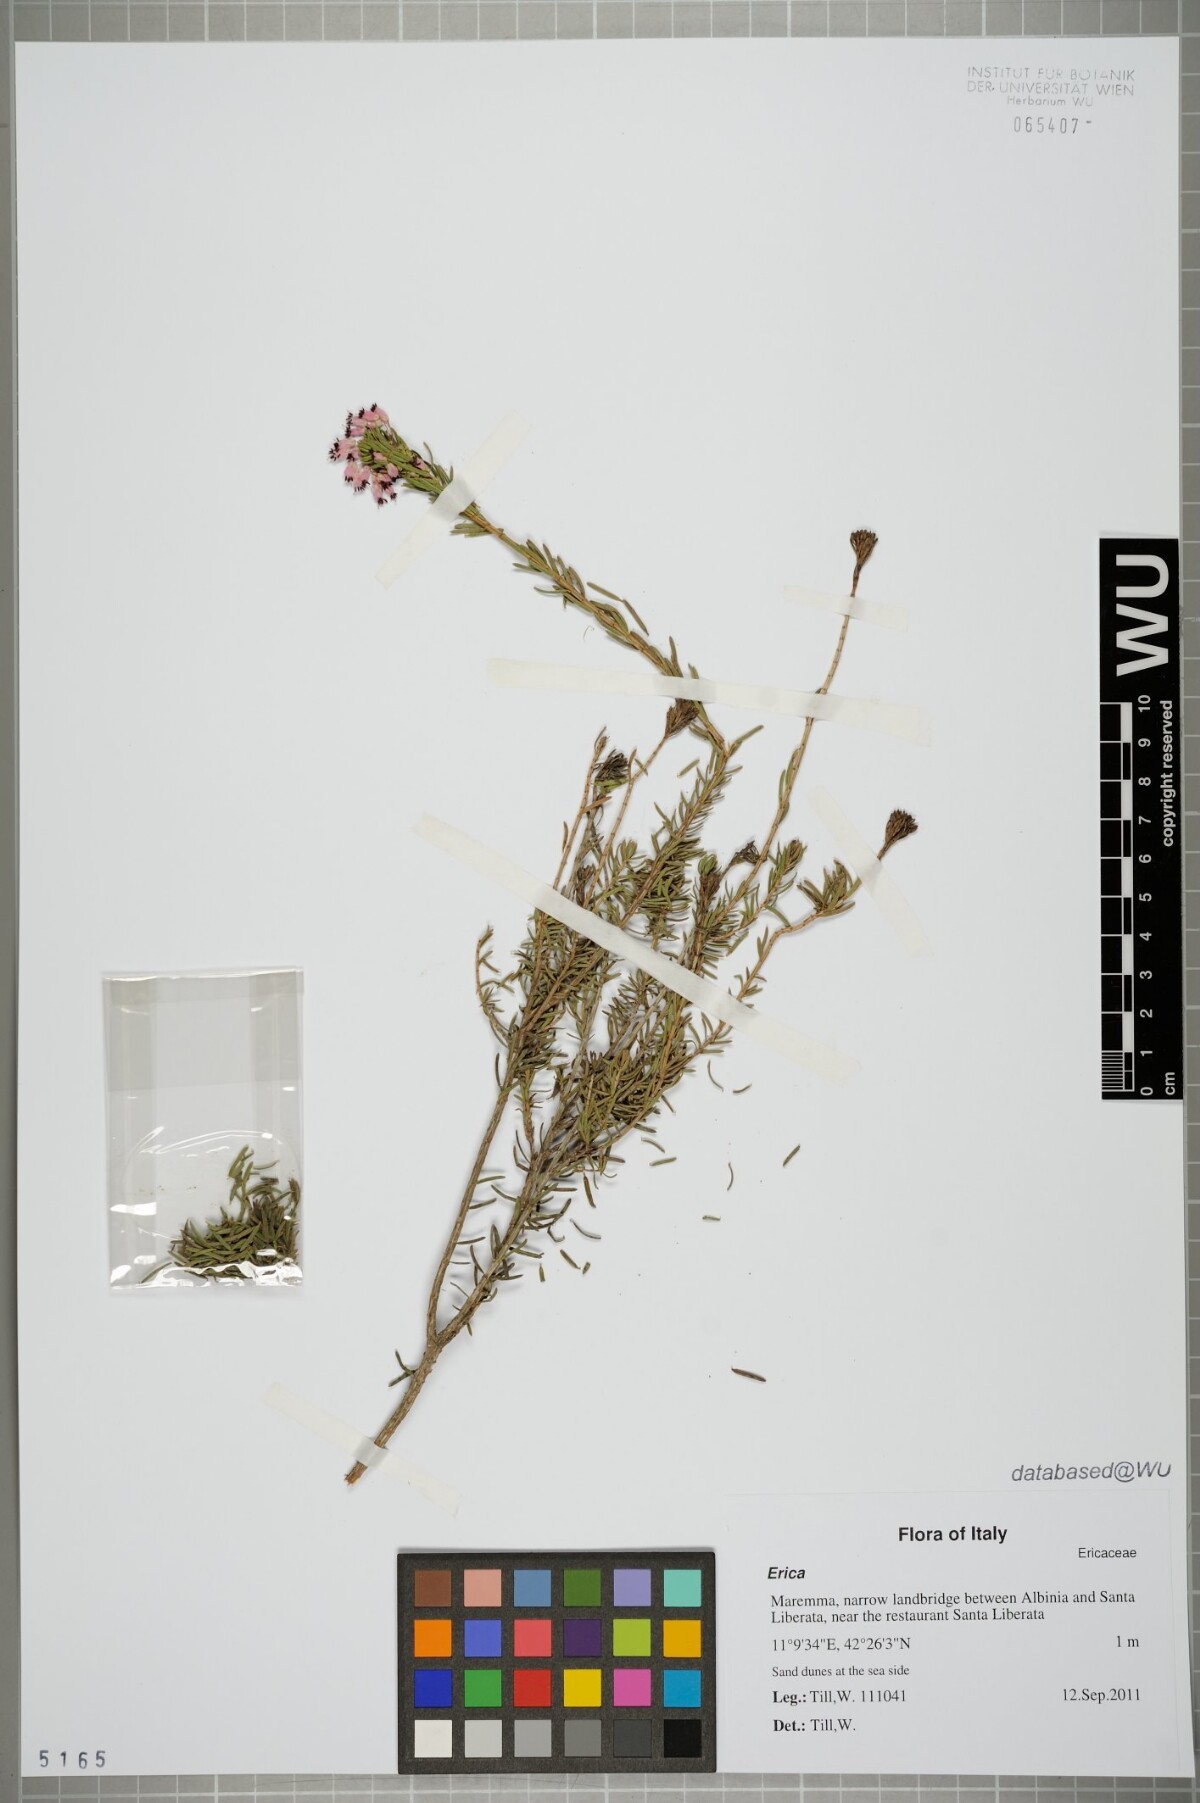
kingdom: Plantae
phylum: Tracheophyta
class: Magnoliopsida
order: Ericales
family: Ericaceae
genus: Erica
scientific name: Erica
